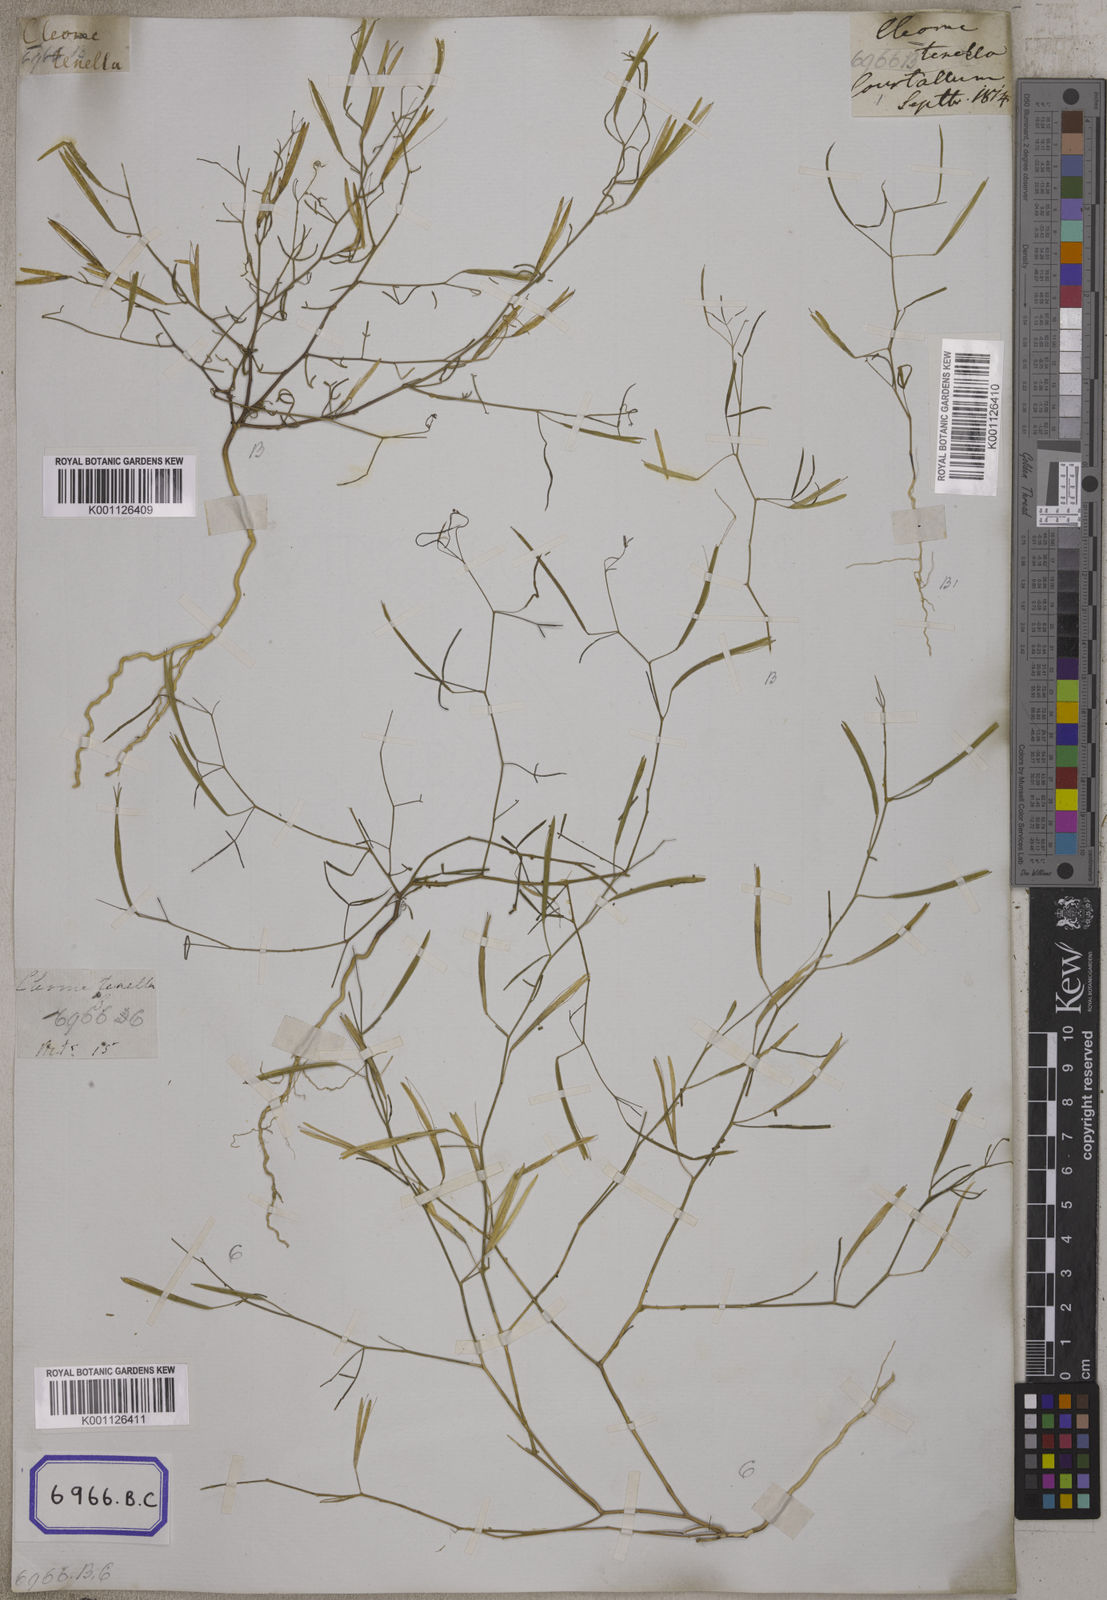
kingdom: Plantae
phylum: Tracheophyta
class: Magnoliopsida
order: Brassicales
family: Cleomaceae
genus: Coalisina
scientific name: Coalisina tenella
